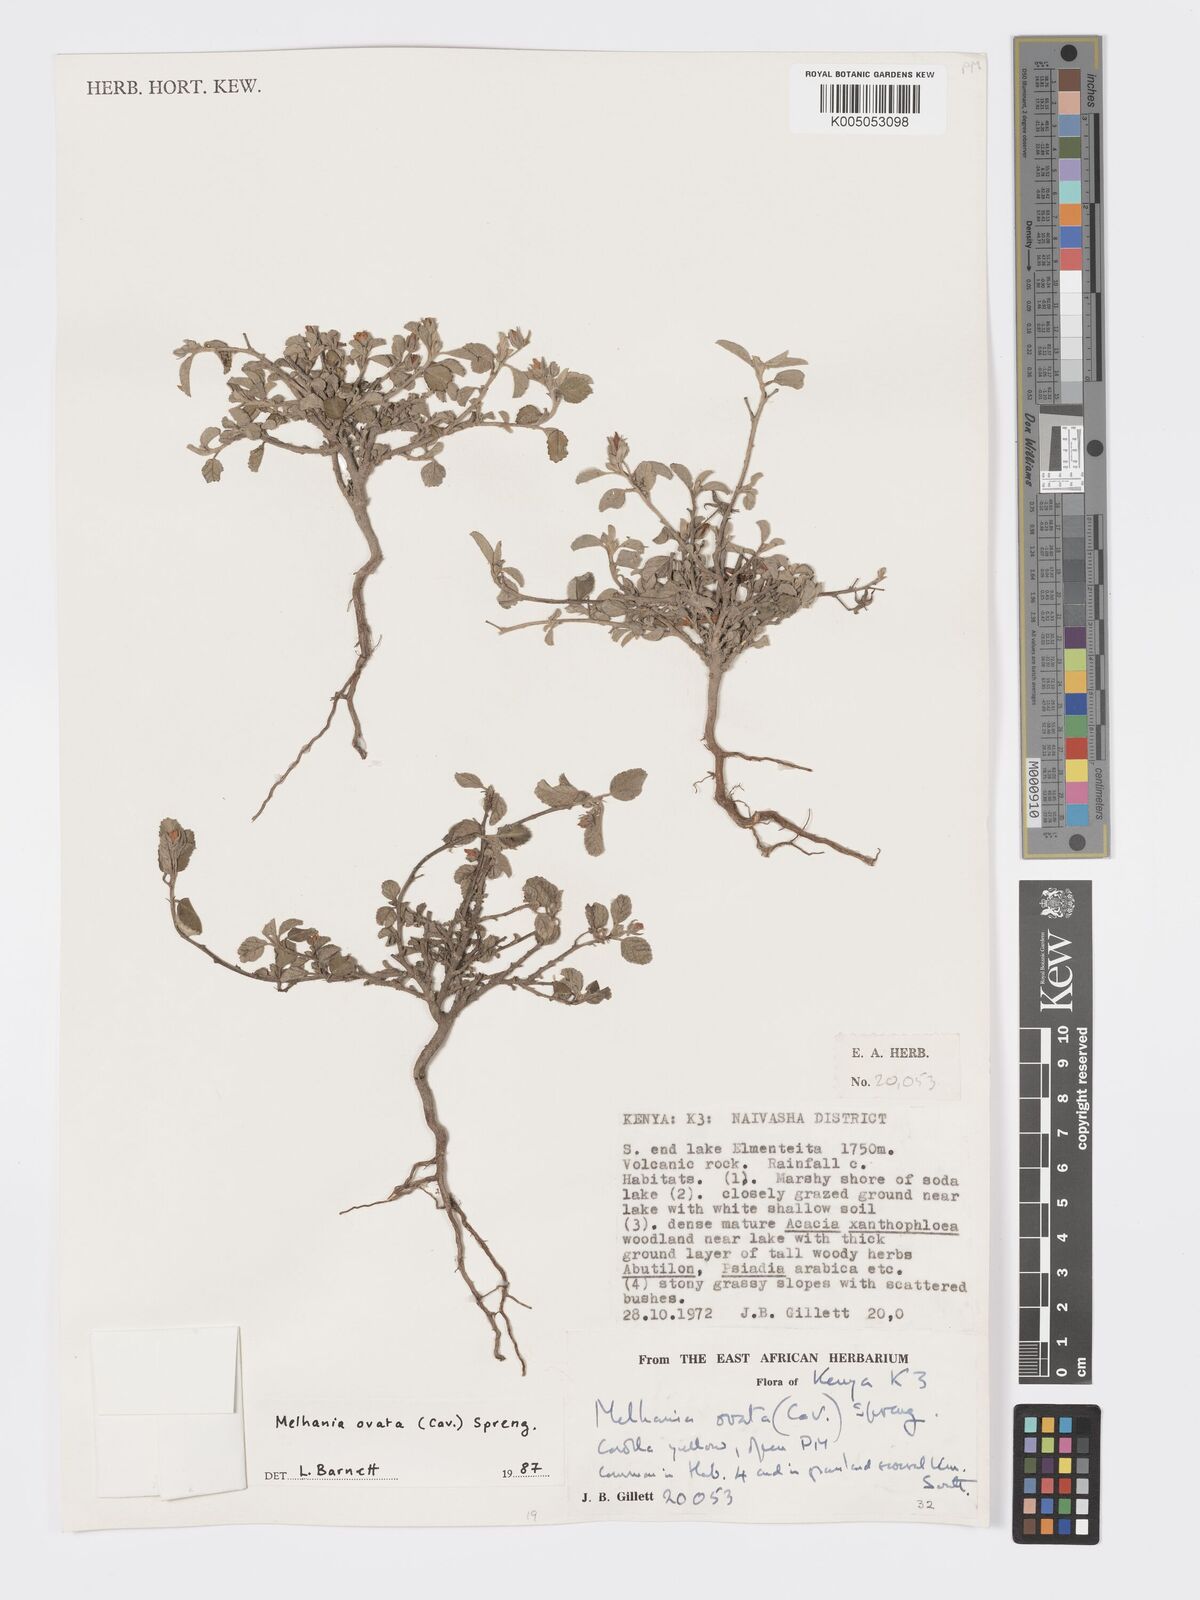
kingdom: Plantae
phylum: Tracheophyta
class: Magnoliopsida
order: Malvales
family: Malvaceae
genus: Melhania
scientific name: Melhania ovata
